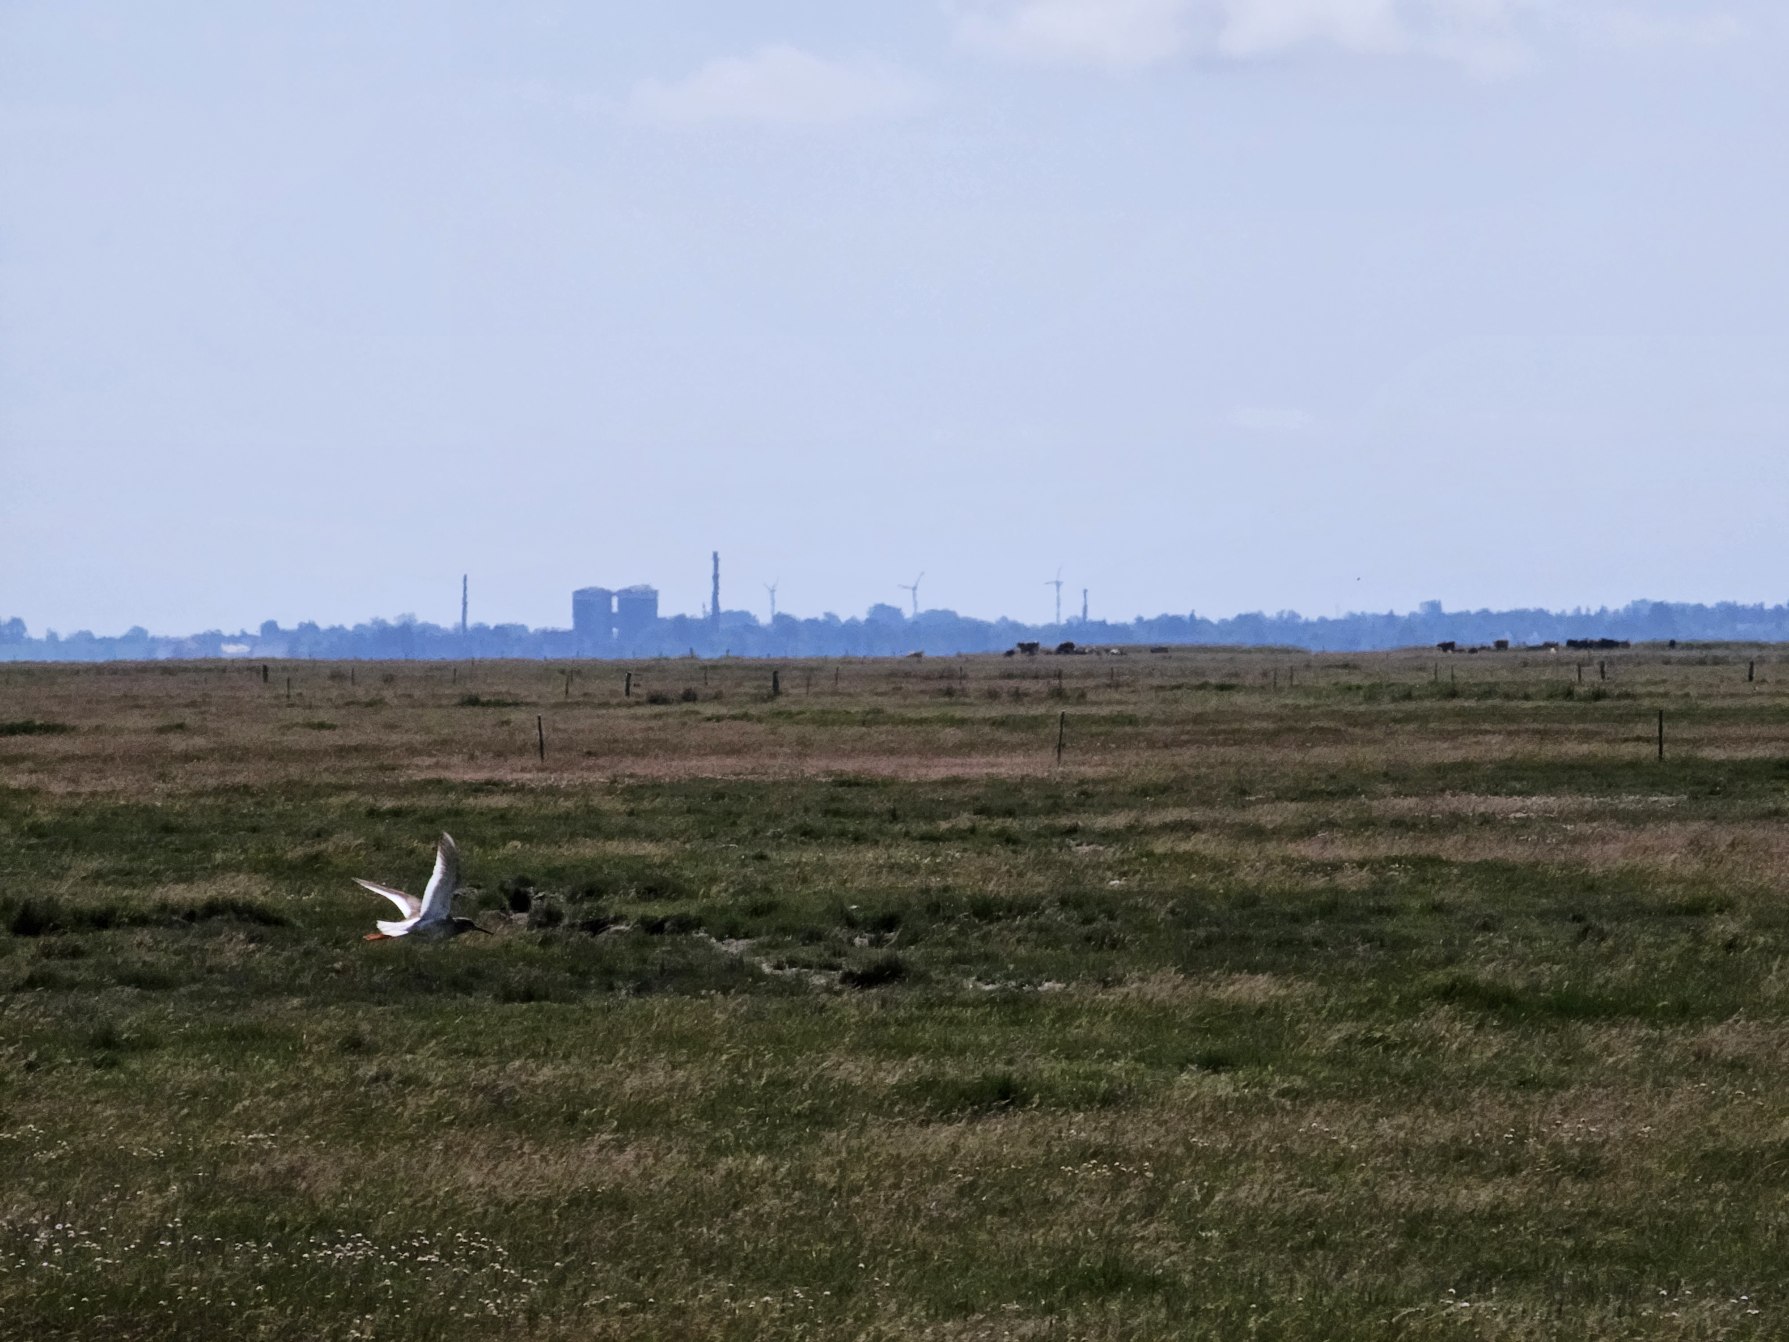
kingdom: Animalia
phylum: Chordata
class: Aves
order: Charadriiformes
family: Scolopacidae
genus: Tringa
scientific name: Tringa totanus
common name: Rødben
